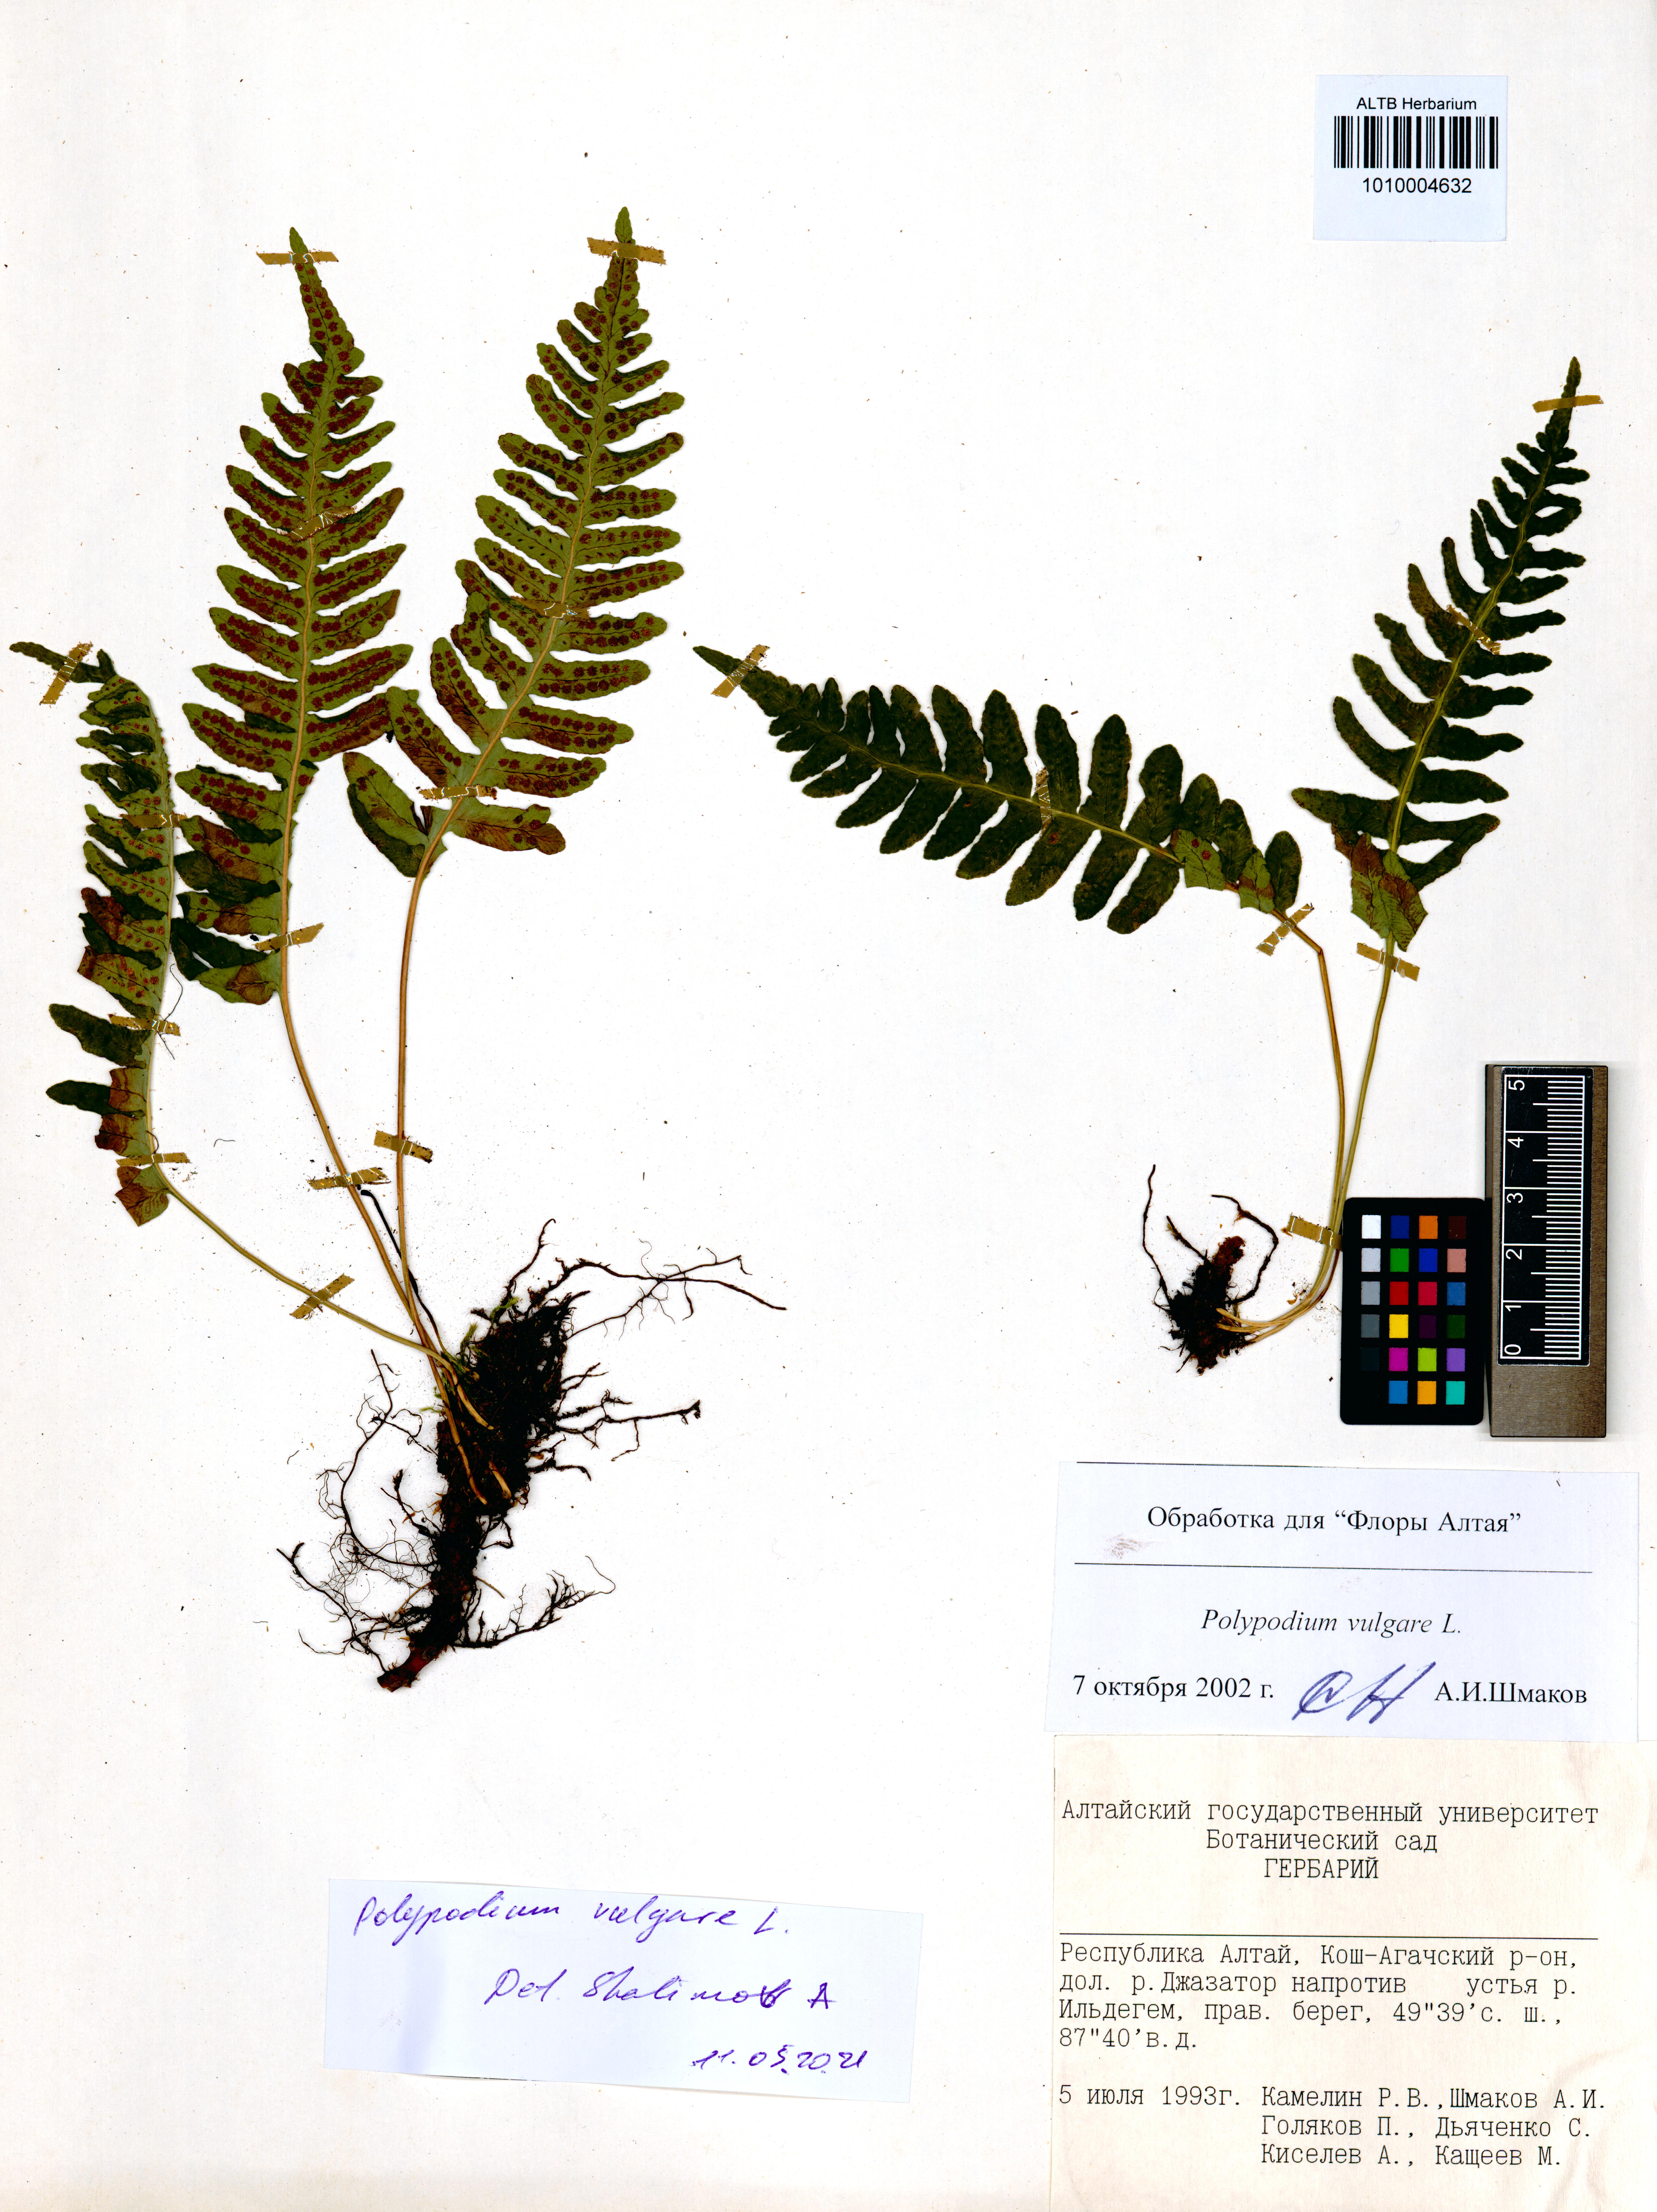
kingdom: Plantae
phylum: Tracheophyta
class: Polypodiopsida
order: Polypodiales
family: Polypodiaceae
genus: Polypodium
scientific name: Polypodium vulgare
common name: Common polypody
